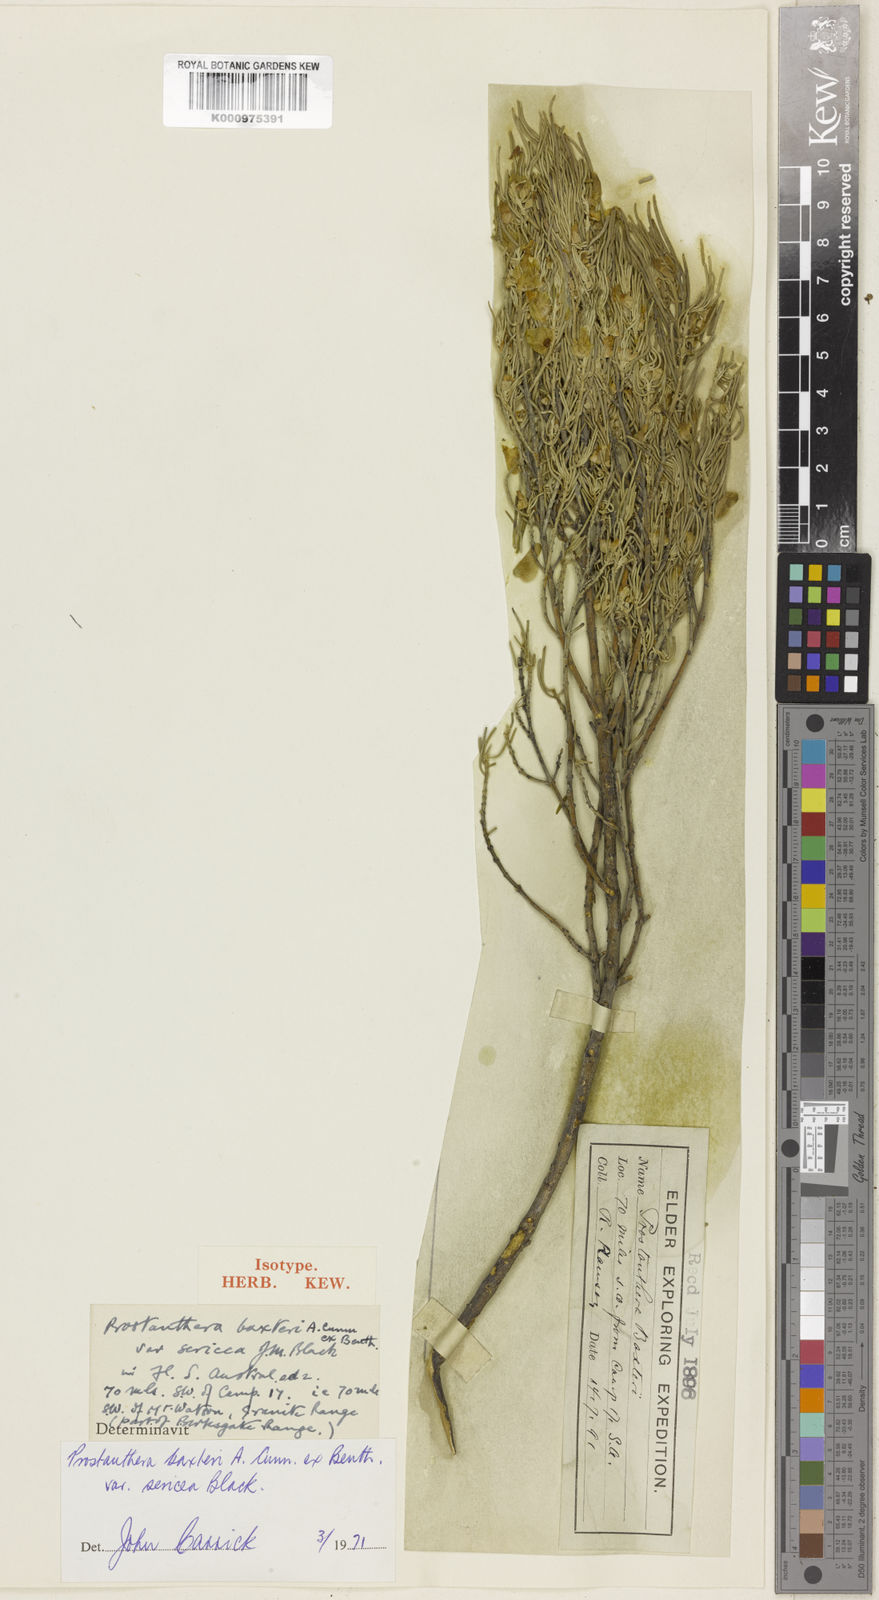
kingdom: Plantae
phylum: Tracheophyta
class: Magnoliopsida
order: Lamiales
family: Lamiaceae
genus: Prostanthera
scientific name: Prostanthera sericea
